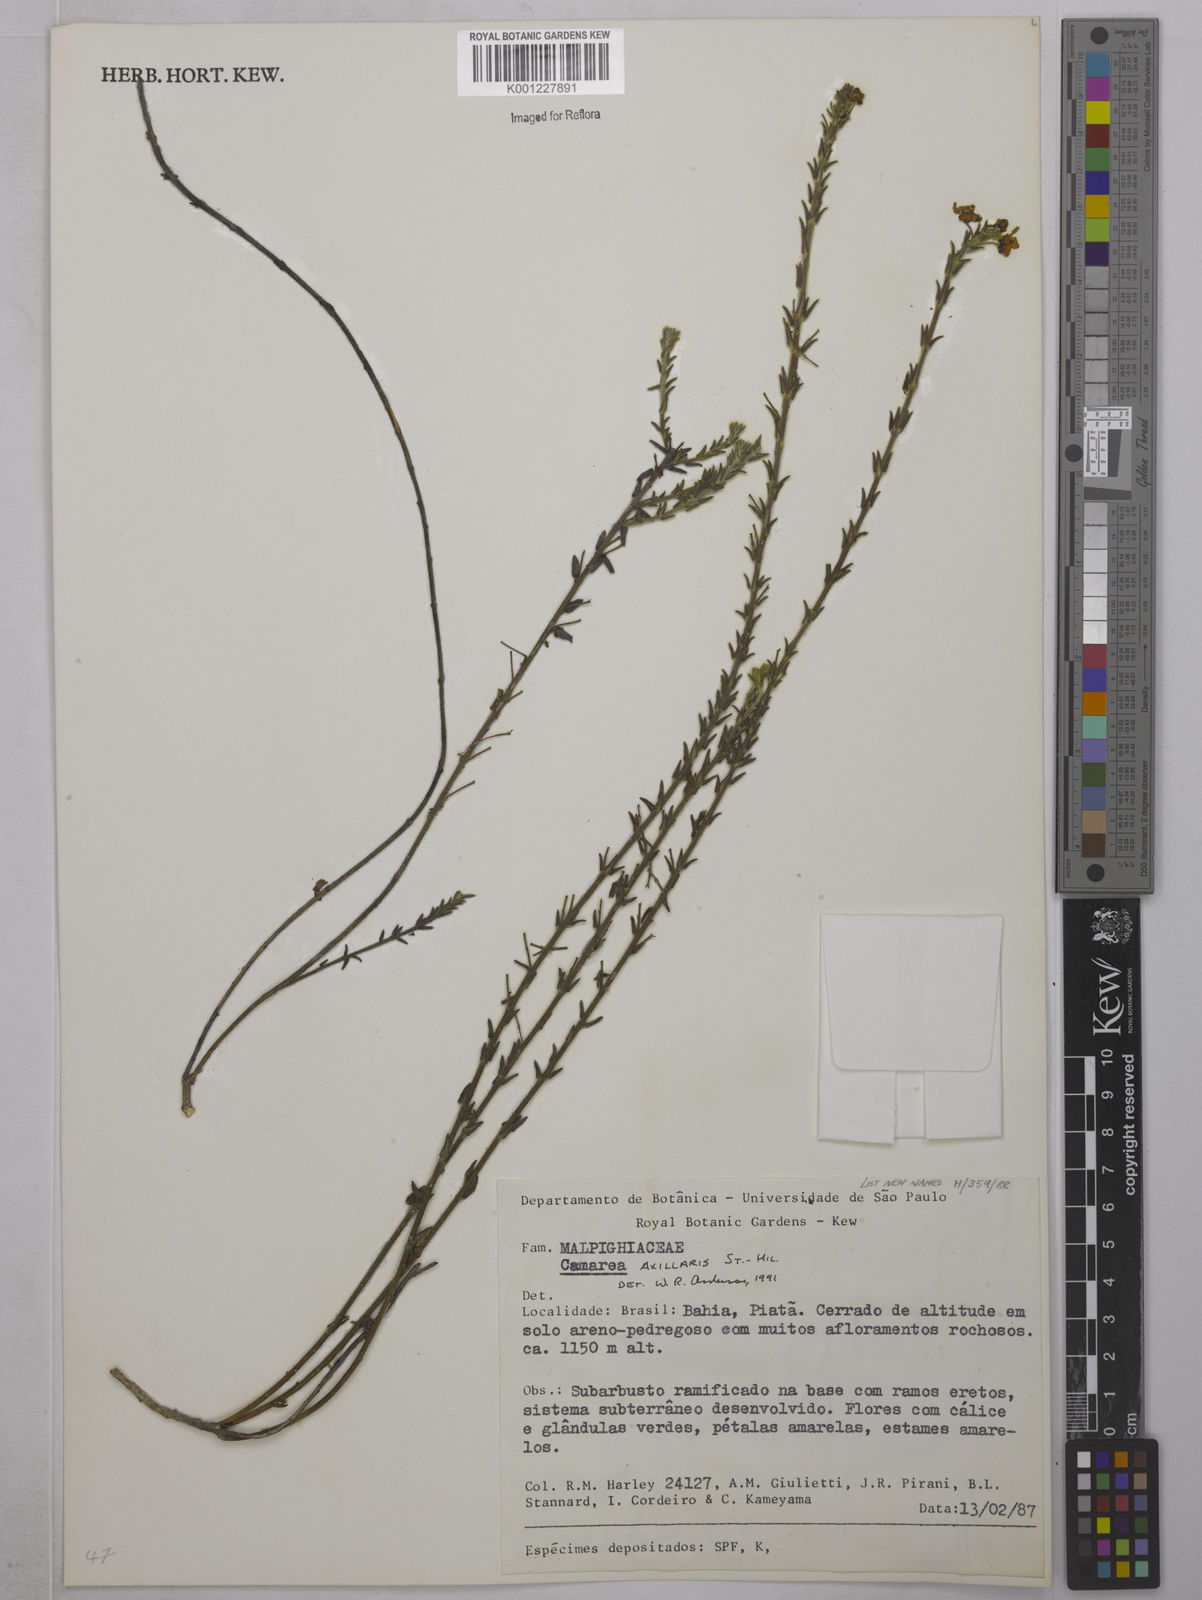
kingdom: Plantae
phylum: Tracheophyta
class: Magnoliopsida
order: Malpighiales
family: Malpighiaceae
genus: Camarea
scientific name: Camarea axillaris
